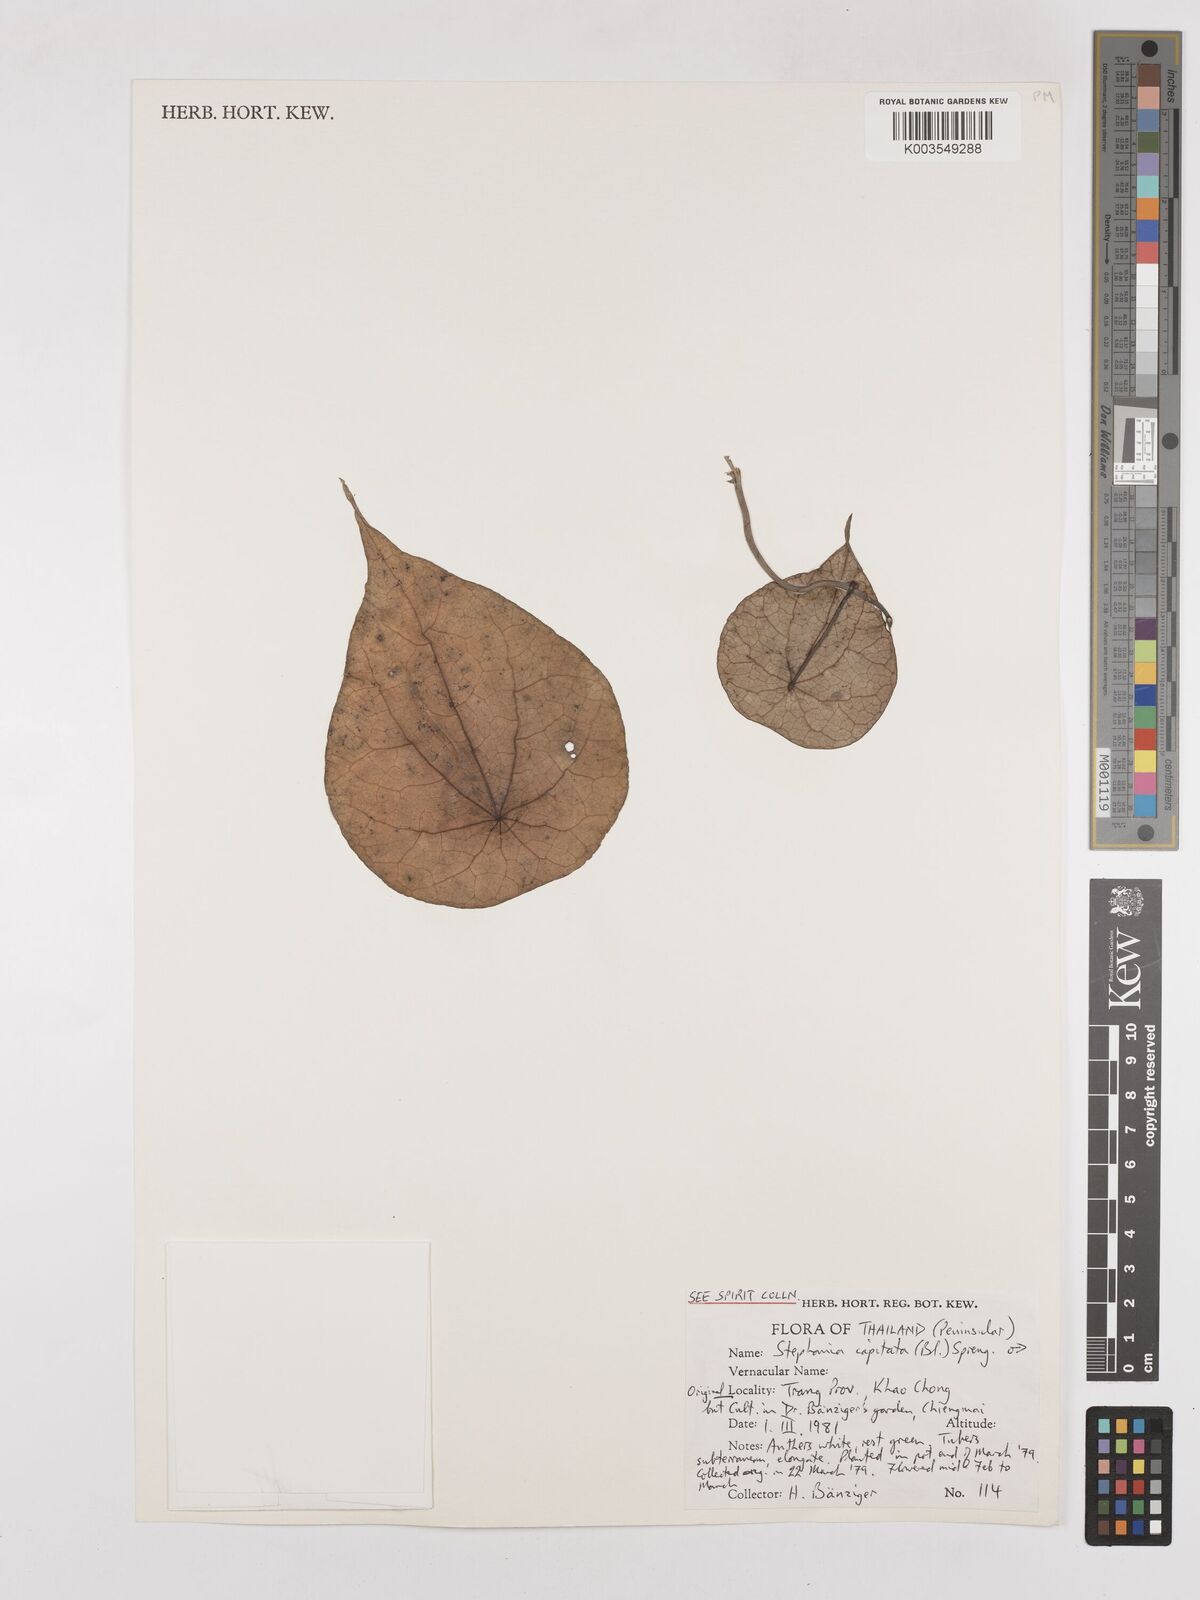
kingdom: Plantae
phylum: Tracheophyta
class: Magnoliopsida
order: Ranunculales
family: Menispermaceae
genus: Stephania
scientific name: Stephania capitata
